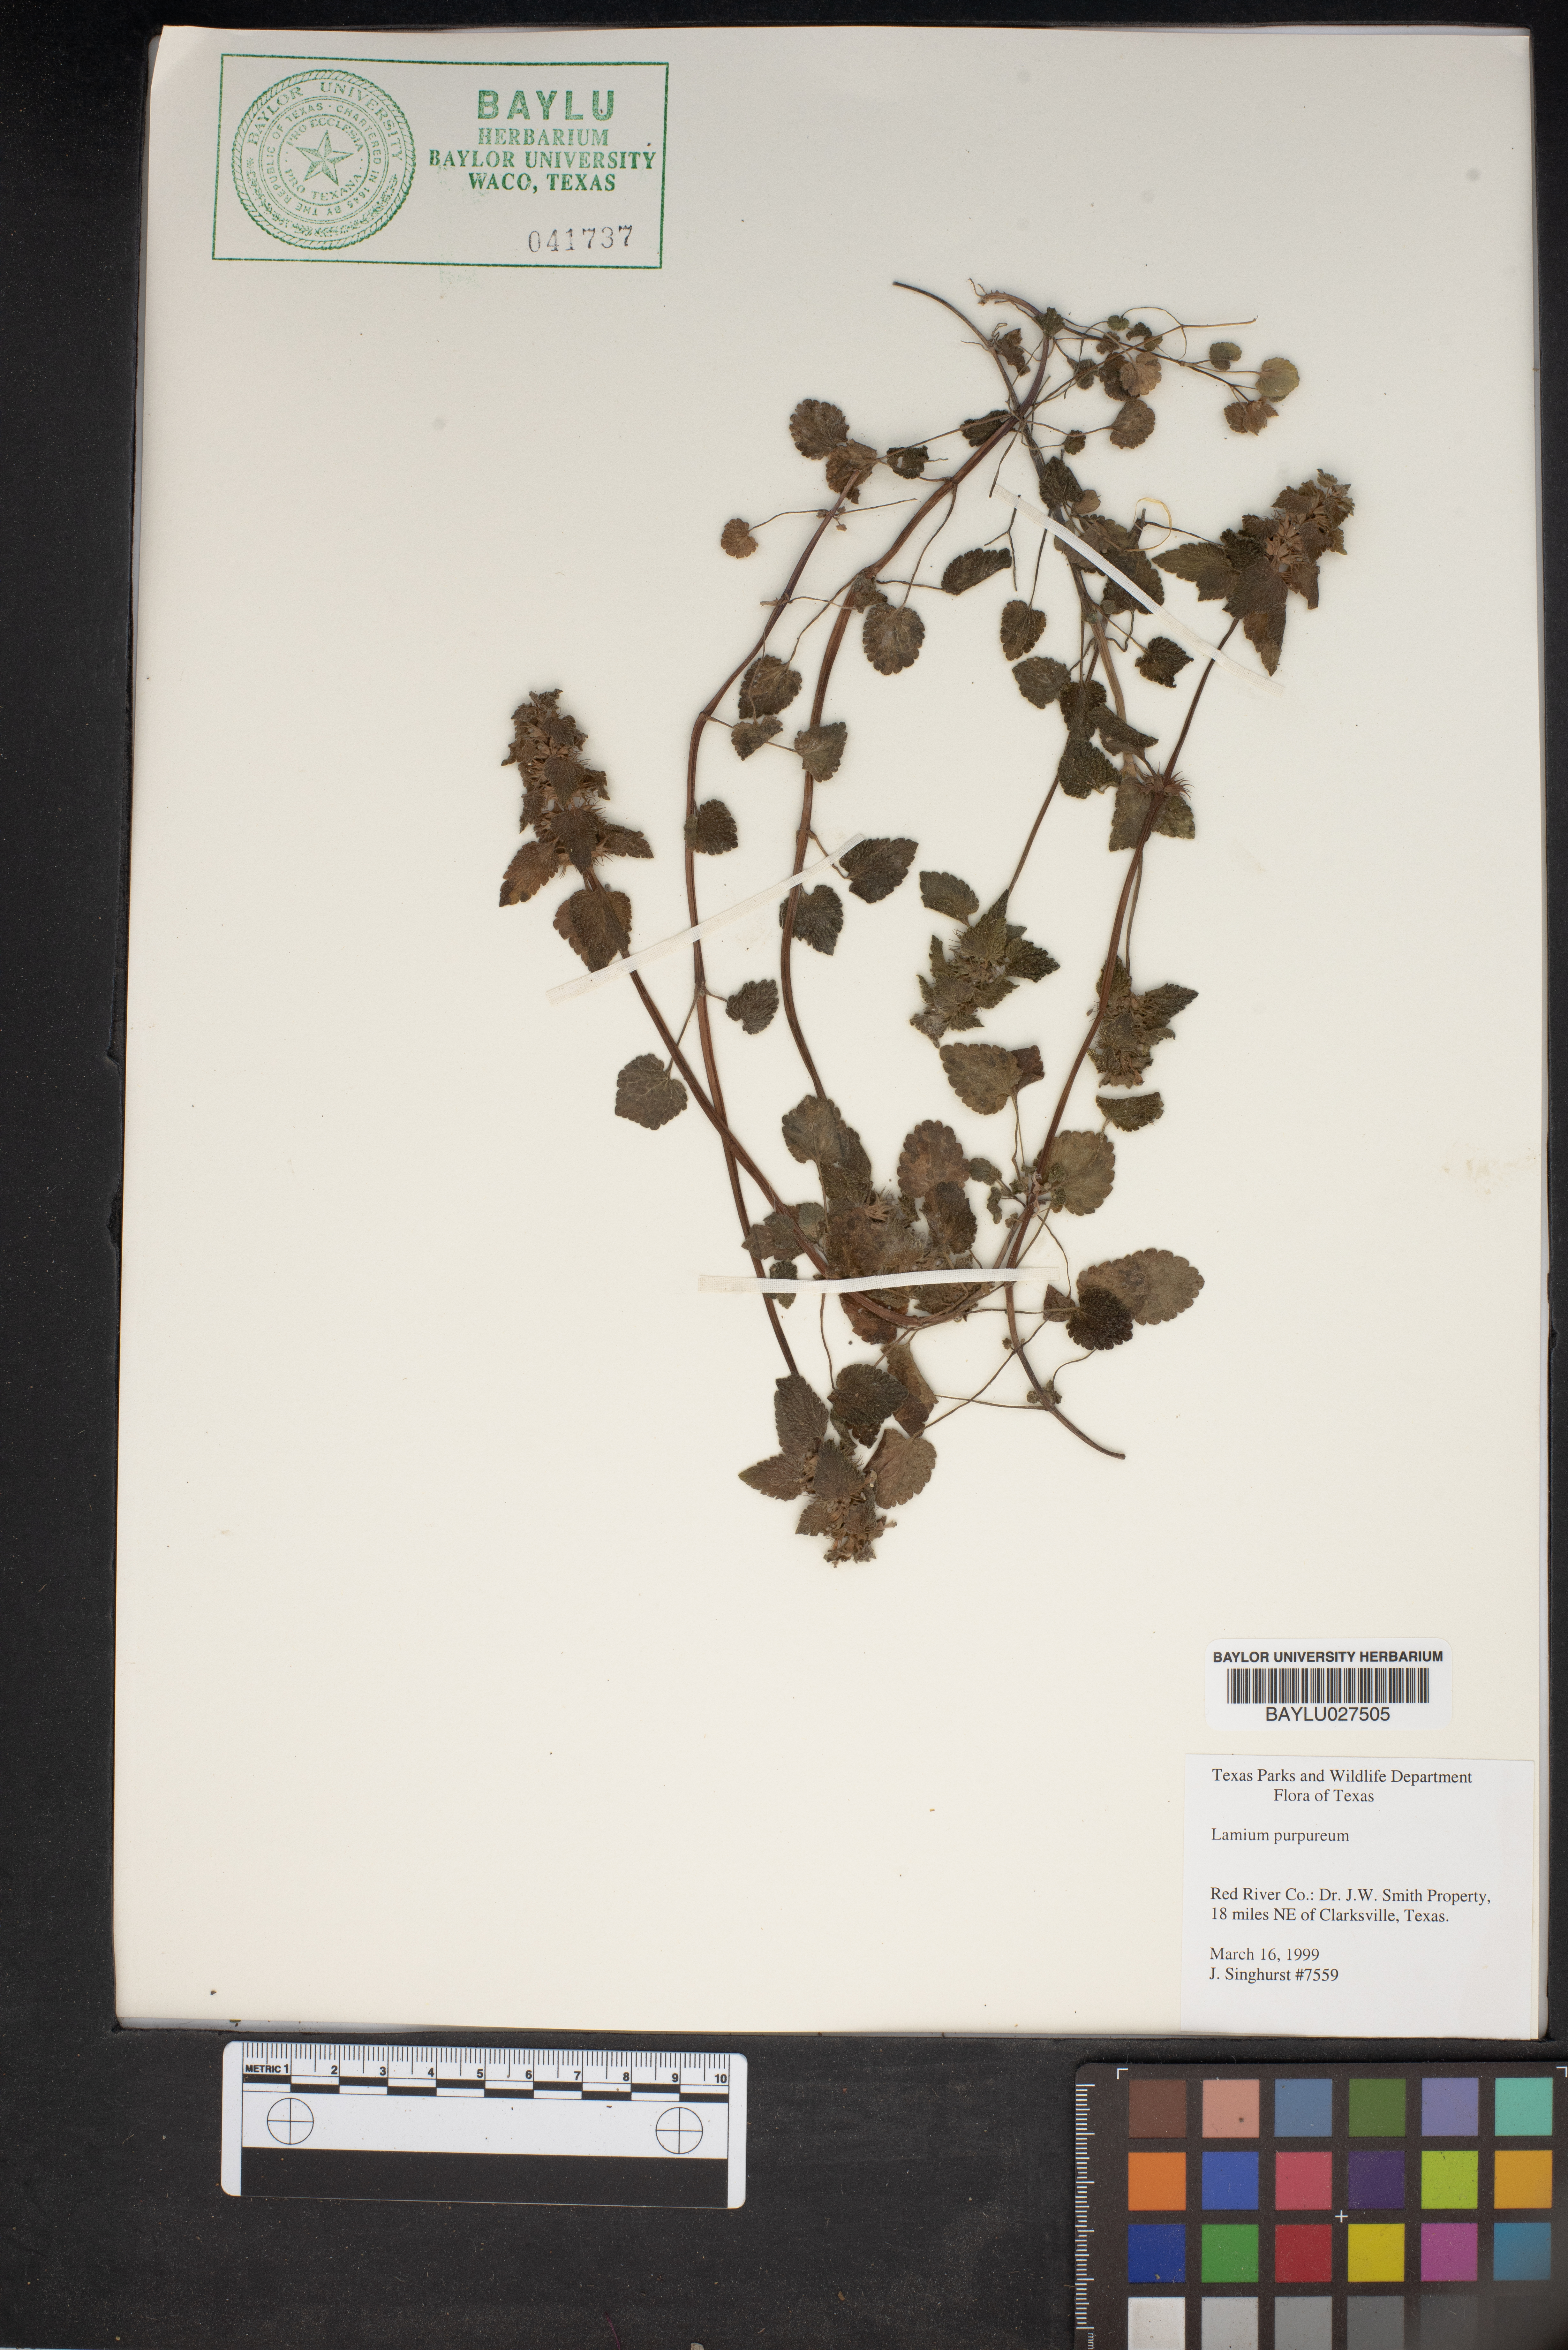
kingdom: Plantae
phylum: Tracheophyta
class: Magnoliopsida
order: Lamiales
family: Lamiaceae
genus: Lamium
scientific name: Lamium purpureum
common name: Red dead-nettle
